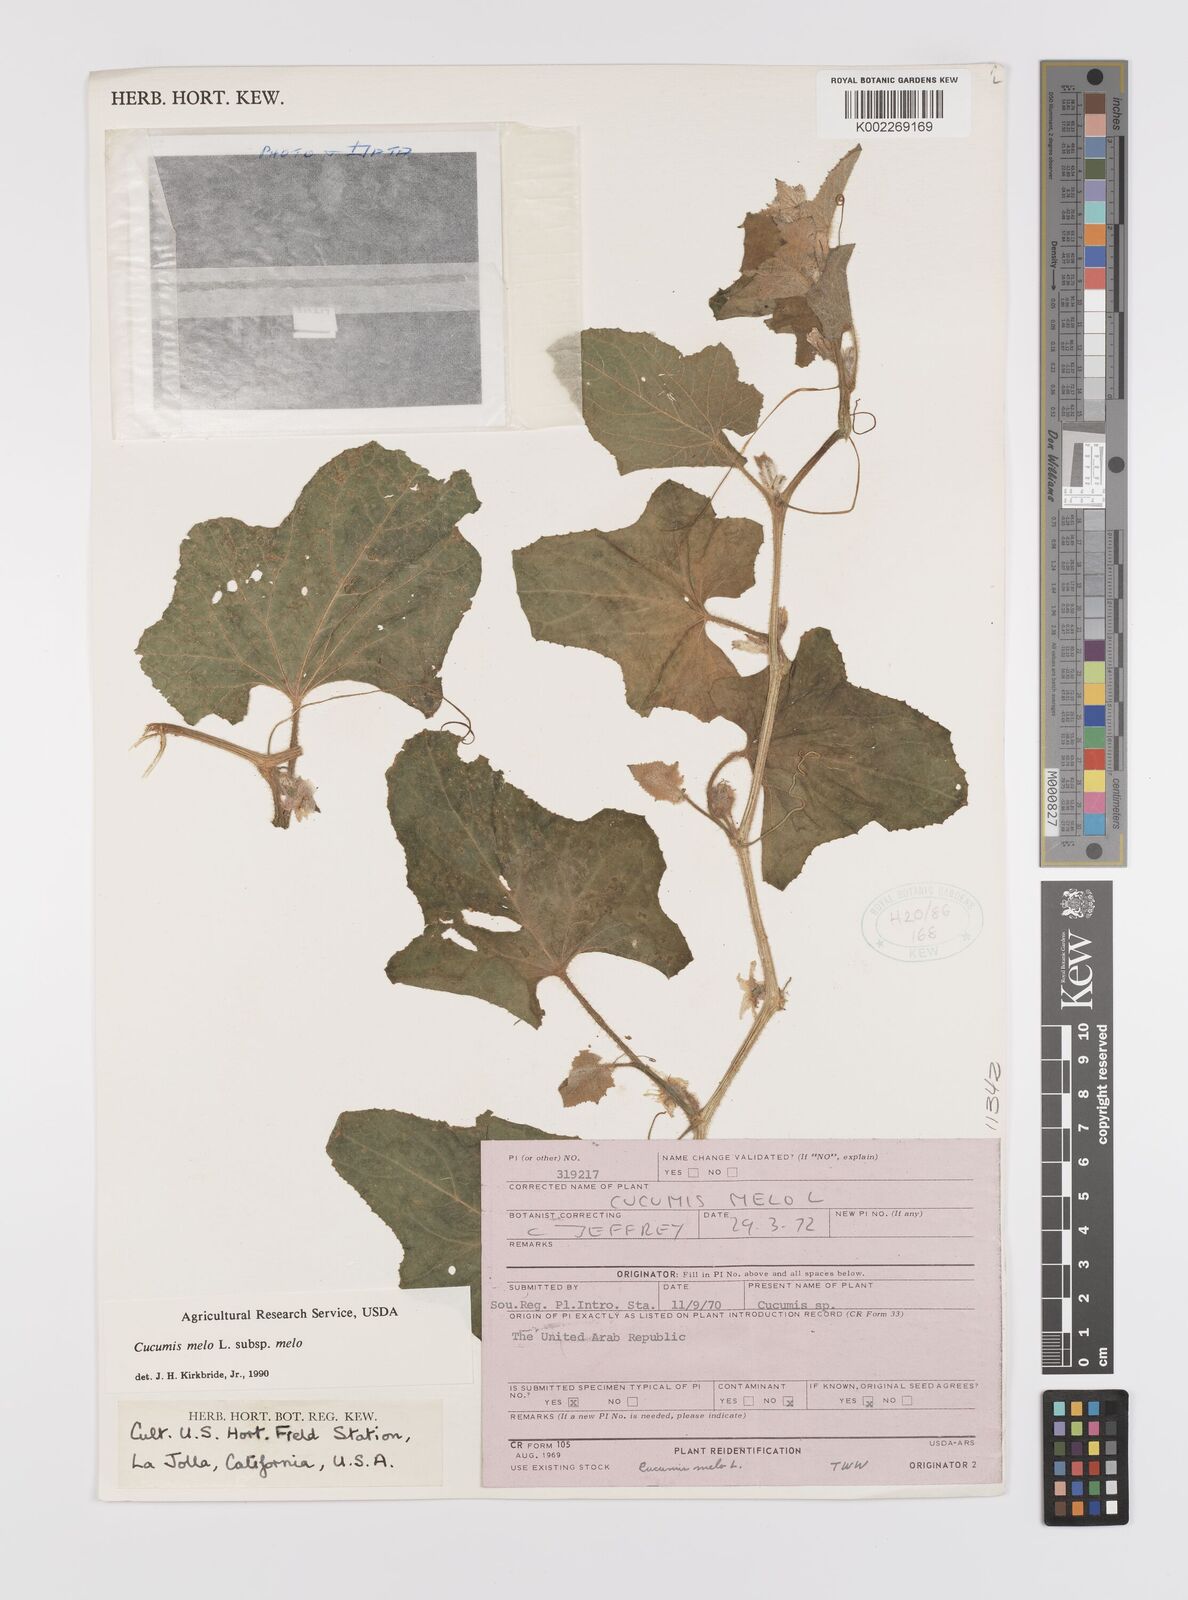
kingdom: Plantae
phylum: Tracheophyta
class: Magnoliopsida
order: Cucurbitales
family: Cucurbitaceae
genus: Cucumis
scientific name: Cucumis melo
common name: Melon
